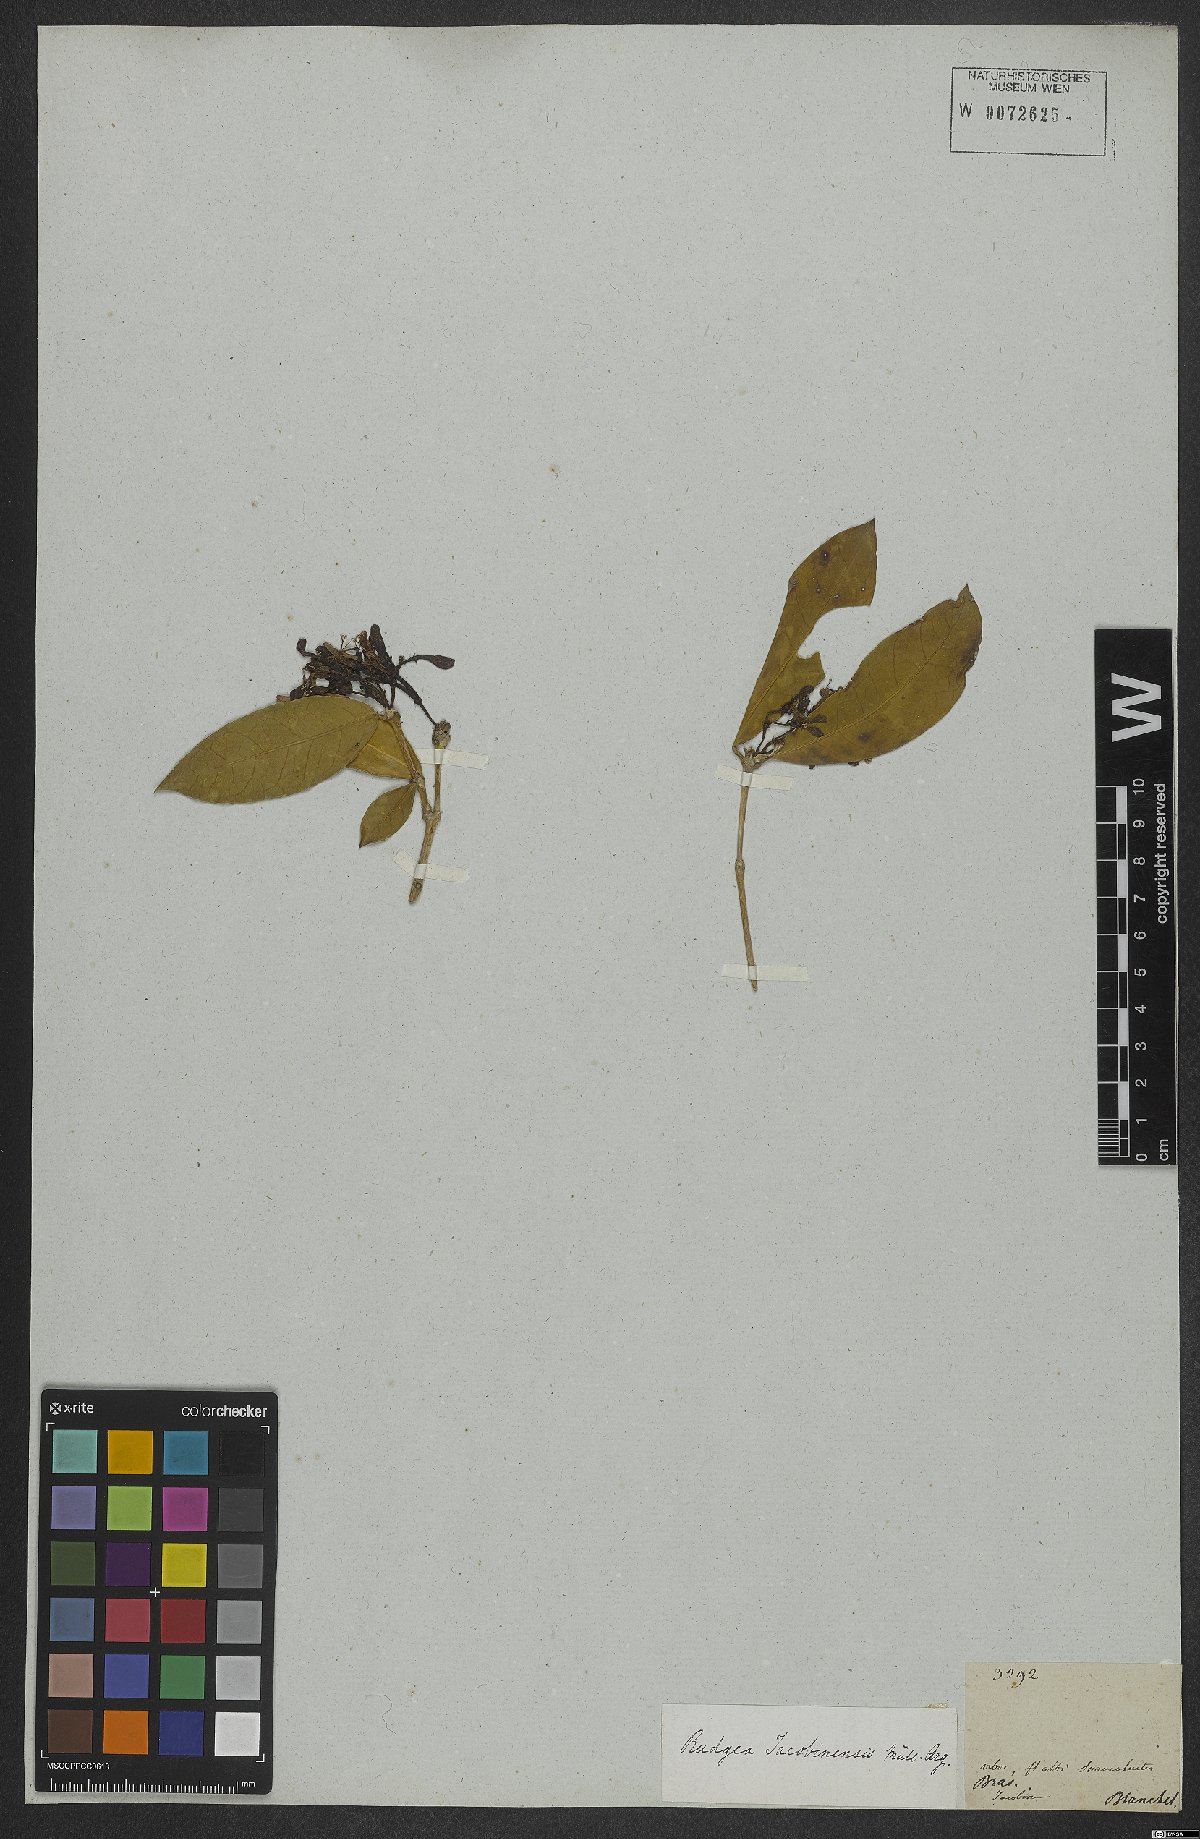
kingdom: Plantae
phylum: Tracheophyta
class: Magnoliopsida
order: Gentianales
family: Rubiaceae
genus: Rudgea
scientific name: Rudgea erioloba
